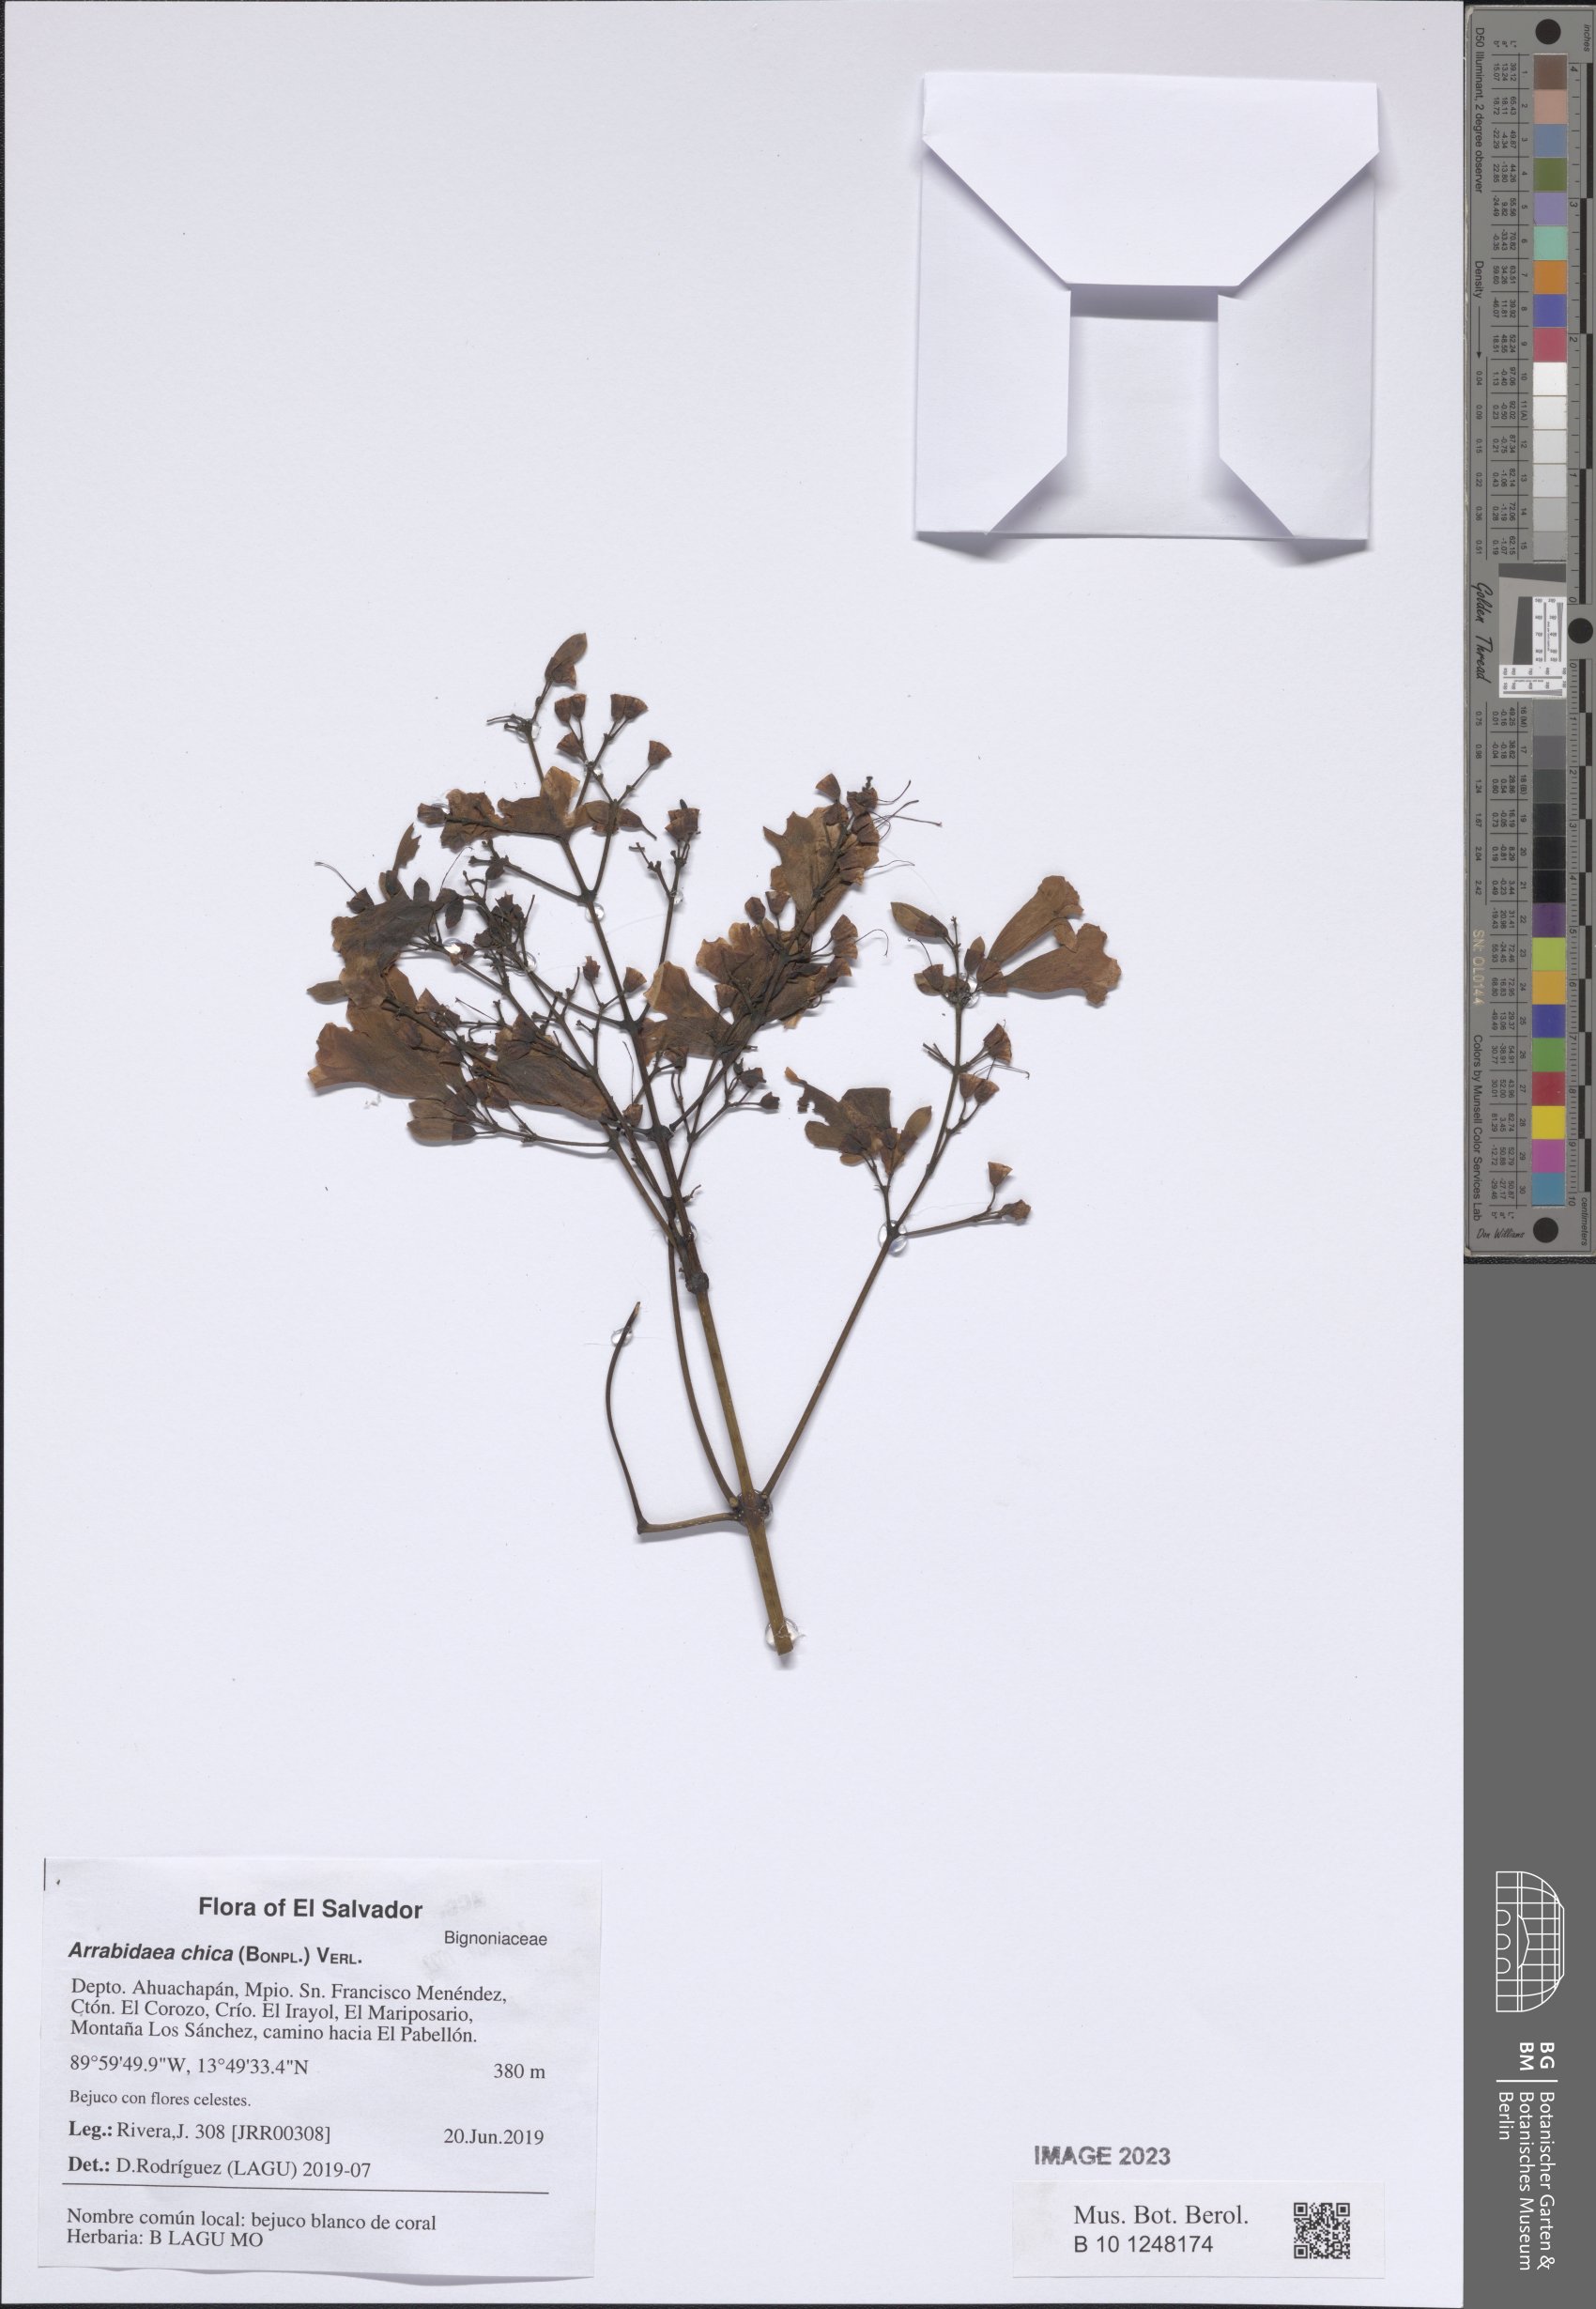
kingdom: Plantae
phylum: Tracheophyta
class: Magnoliopsida
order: Lamiales
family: Bignoniaceae
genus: Fridericia
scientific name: Fridericia chica
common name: Cricketvine
